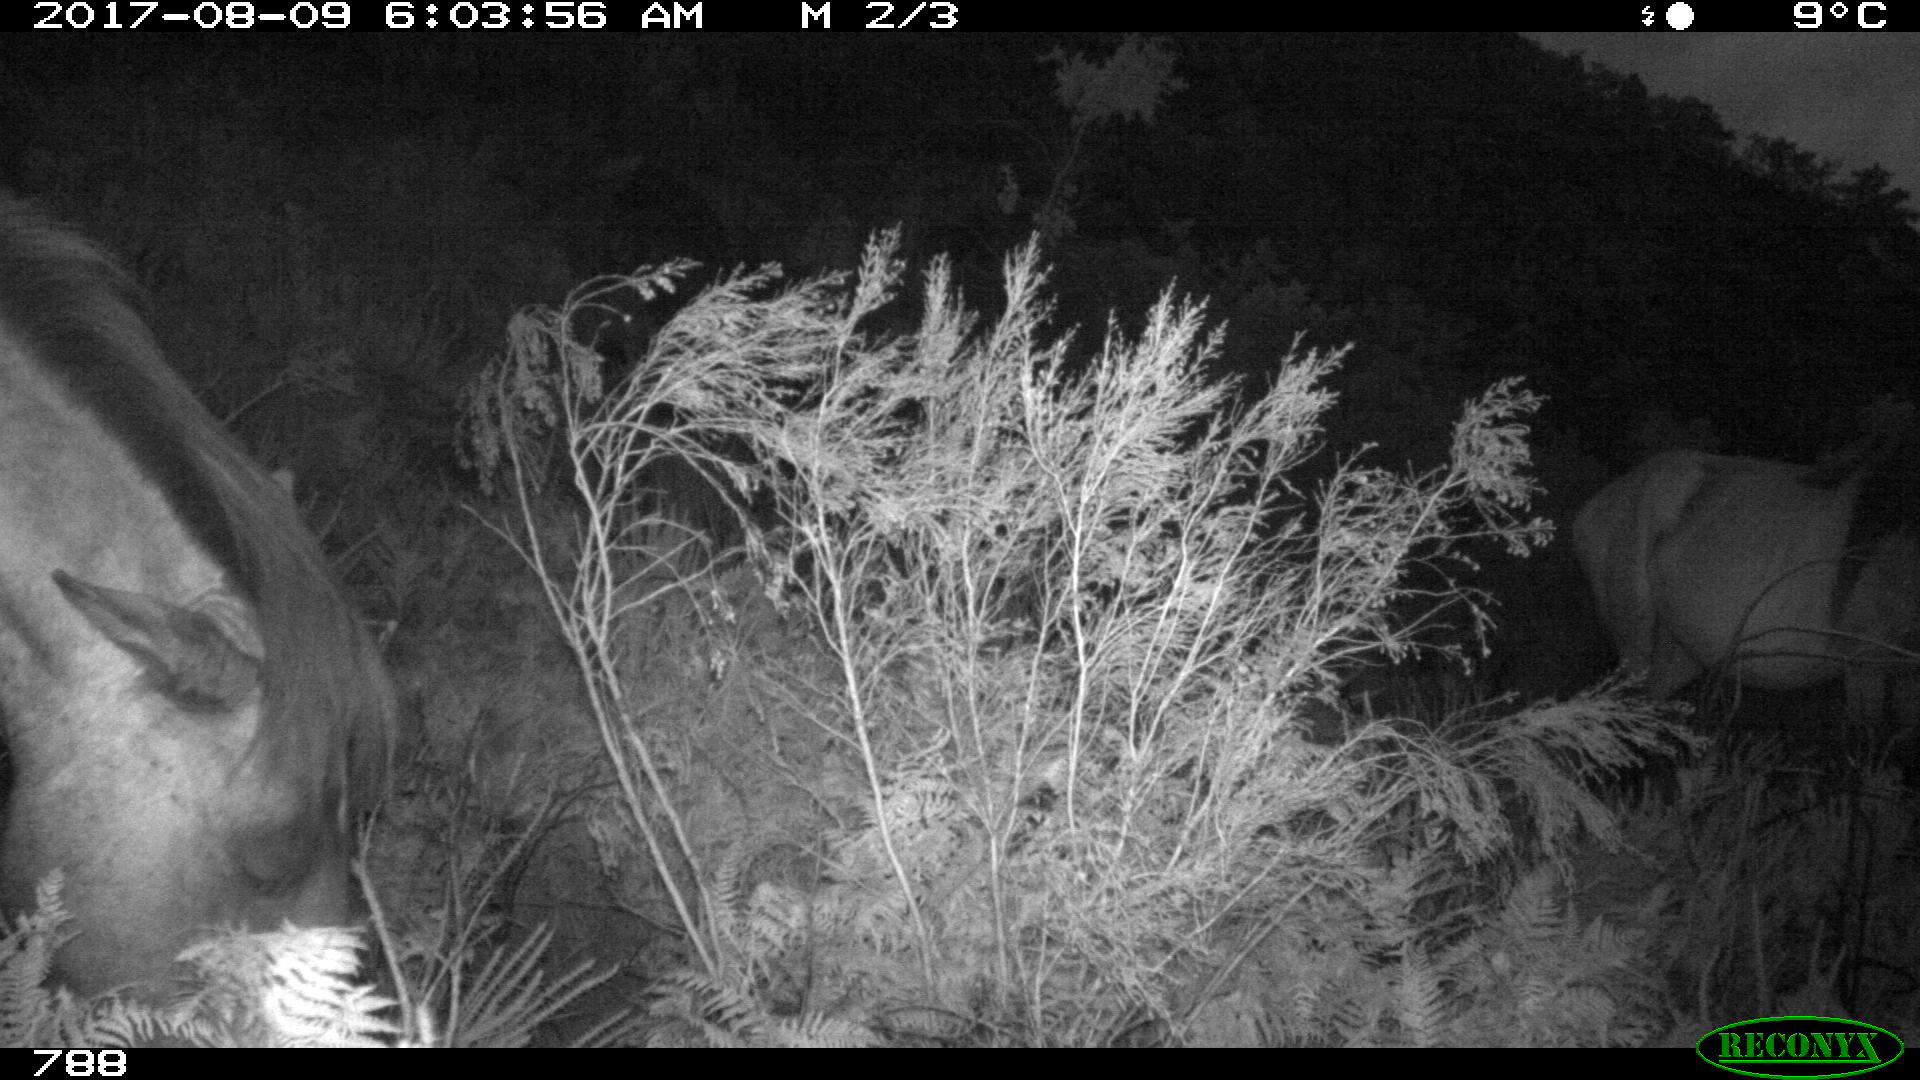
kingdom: Animalia
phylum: Chordata
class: Mammalia
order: Perissodactyla
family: Equidae
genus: Equus
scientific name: Equus caballus
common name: Horse
